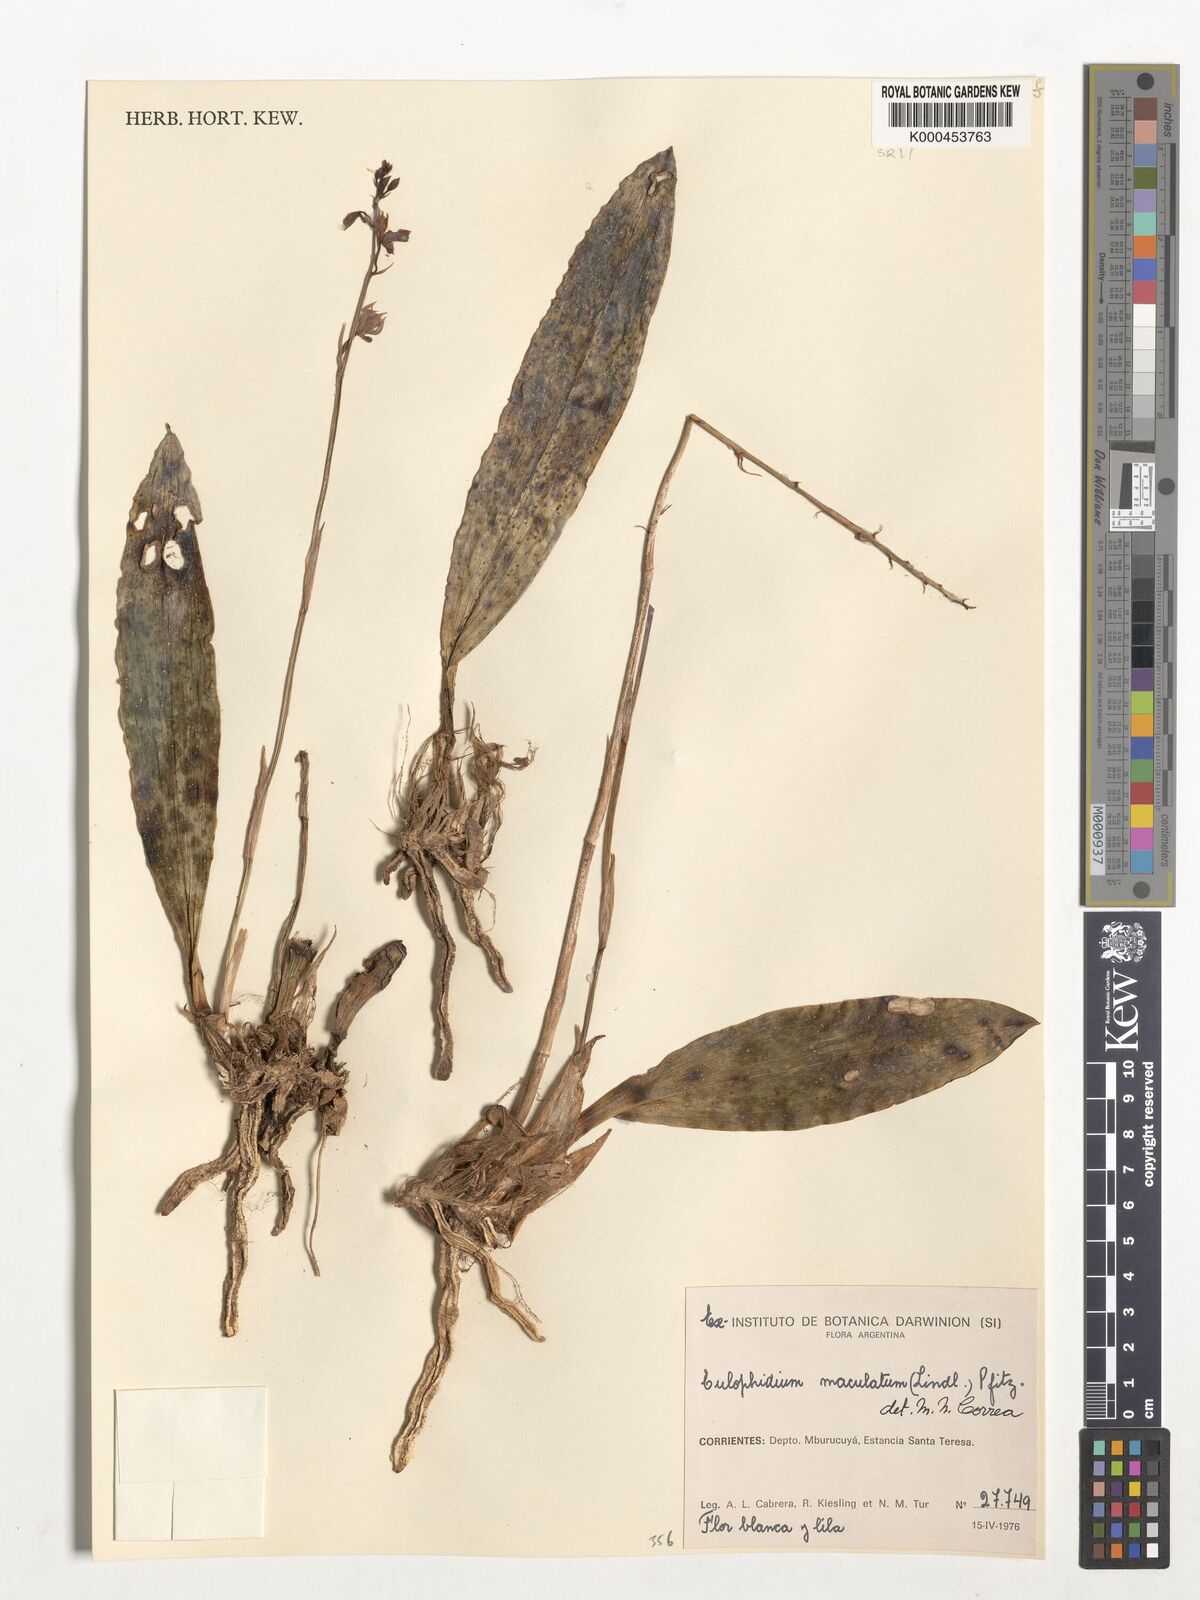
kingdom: Plantae
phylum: Tracheophyta
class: Liliopsida
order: Asparagales
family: Orchidaceae
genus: Eulophia
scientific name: Eulophia maculata
